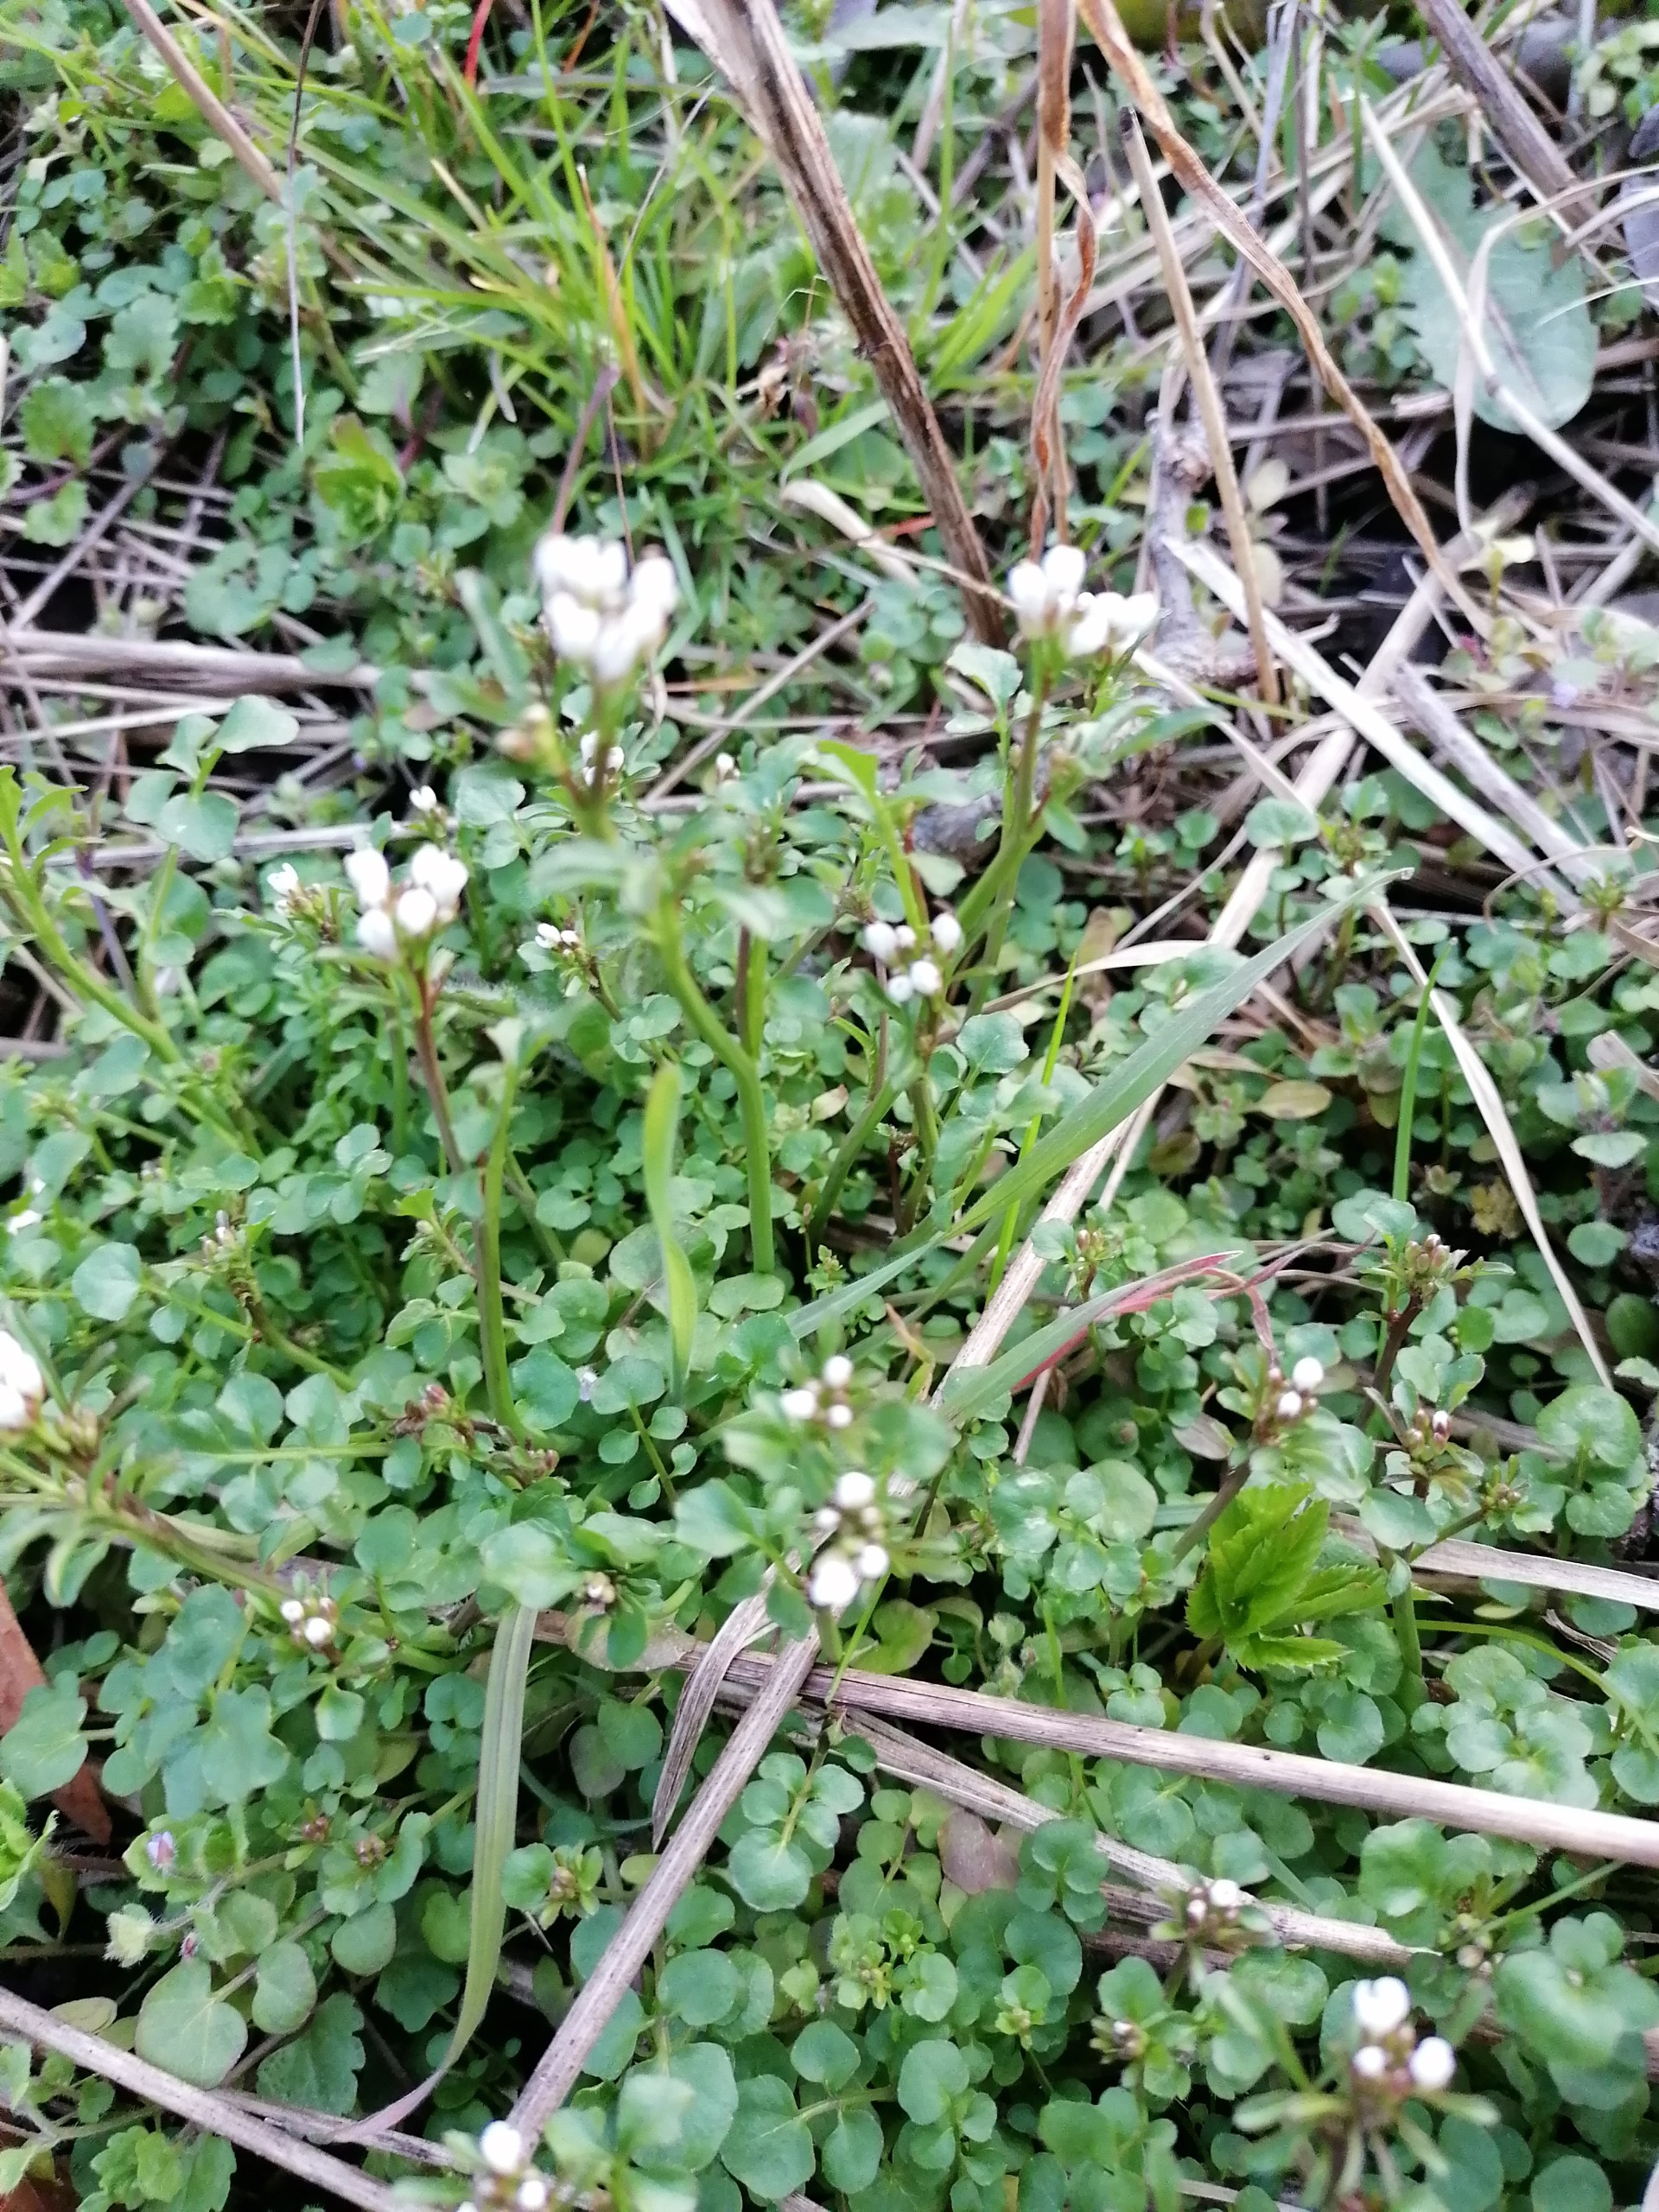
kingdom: Plantae
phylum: Tracheophyta
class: Magnoliopsida
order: Brassicales
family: Brassicaceae
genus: Cardamine
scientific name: Cardamine hirsuta
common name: Roset-springklap
